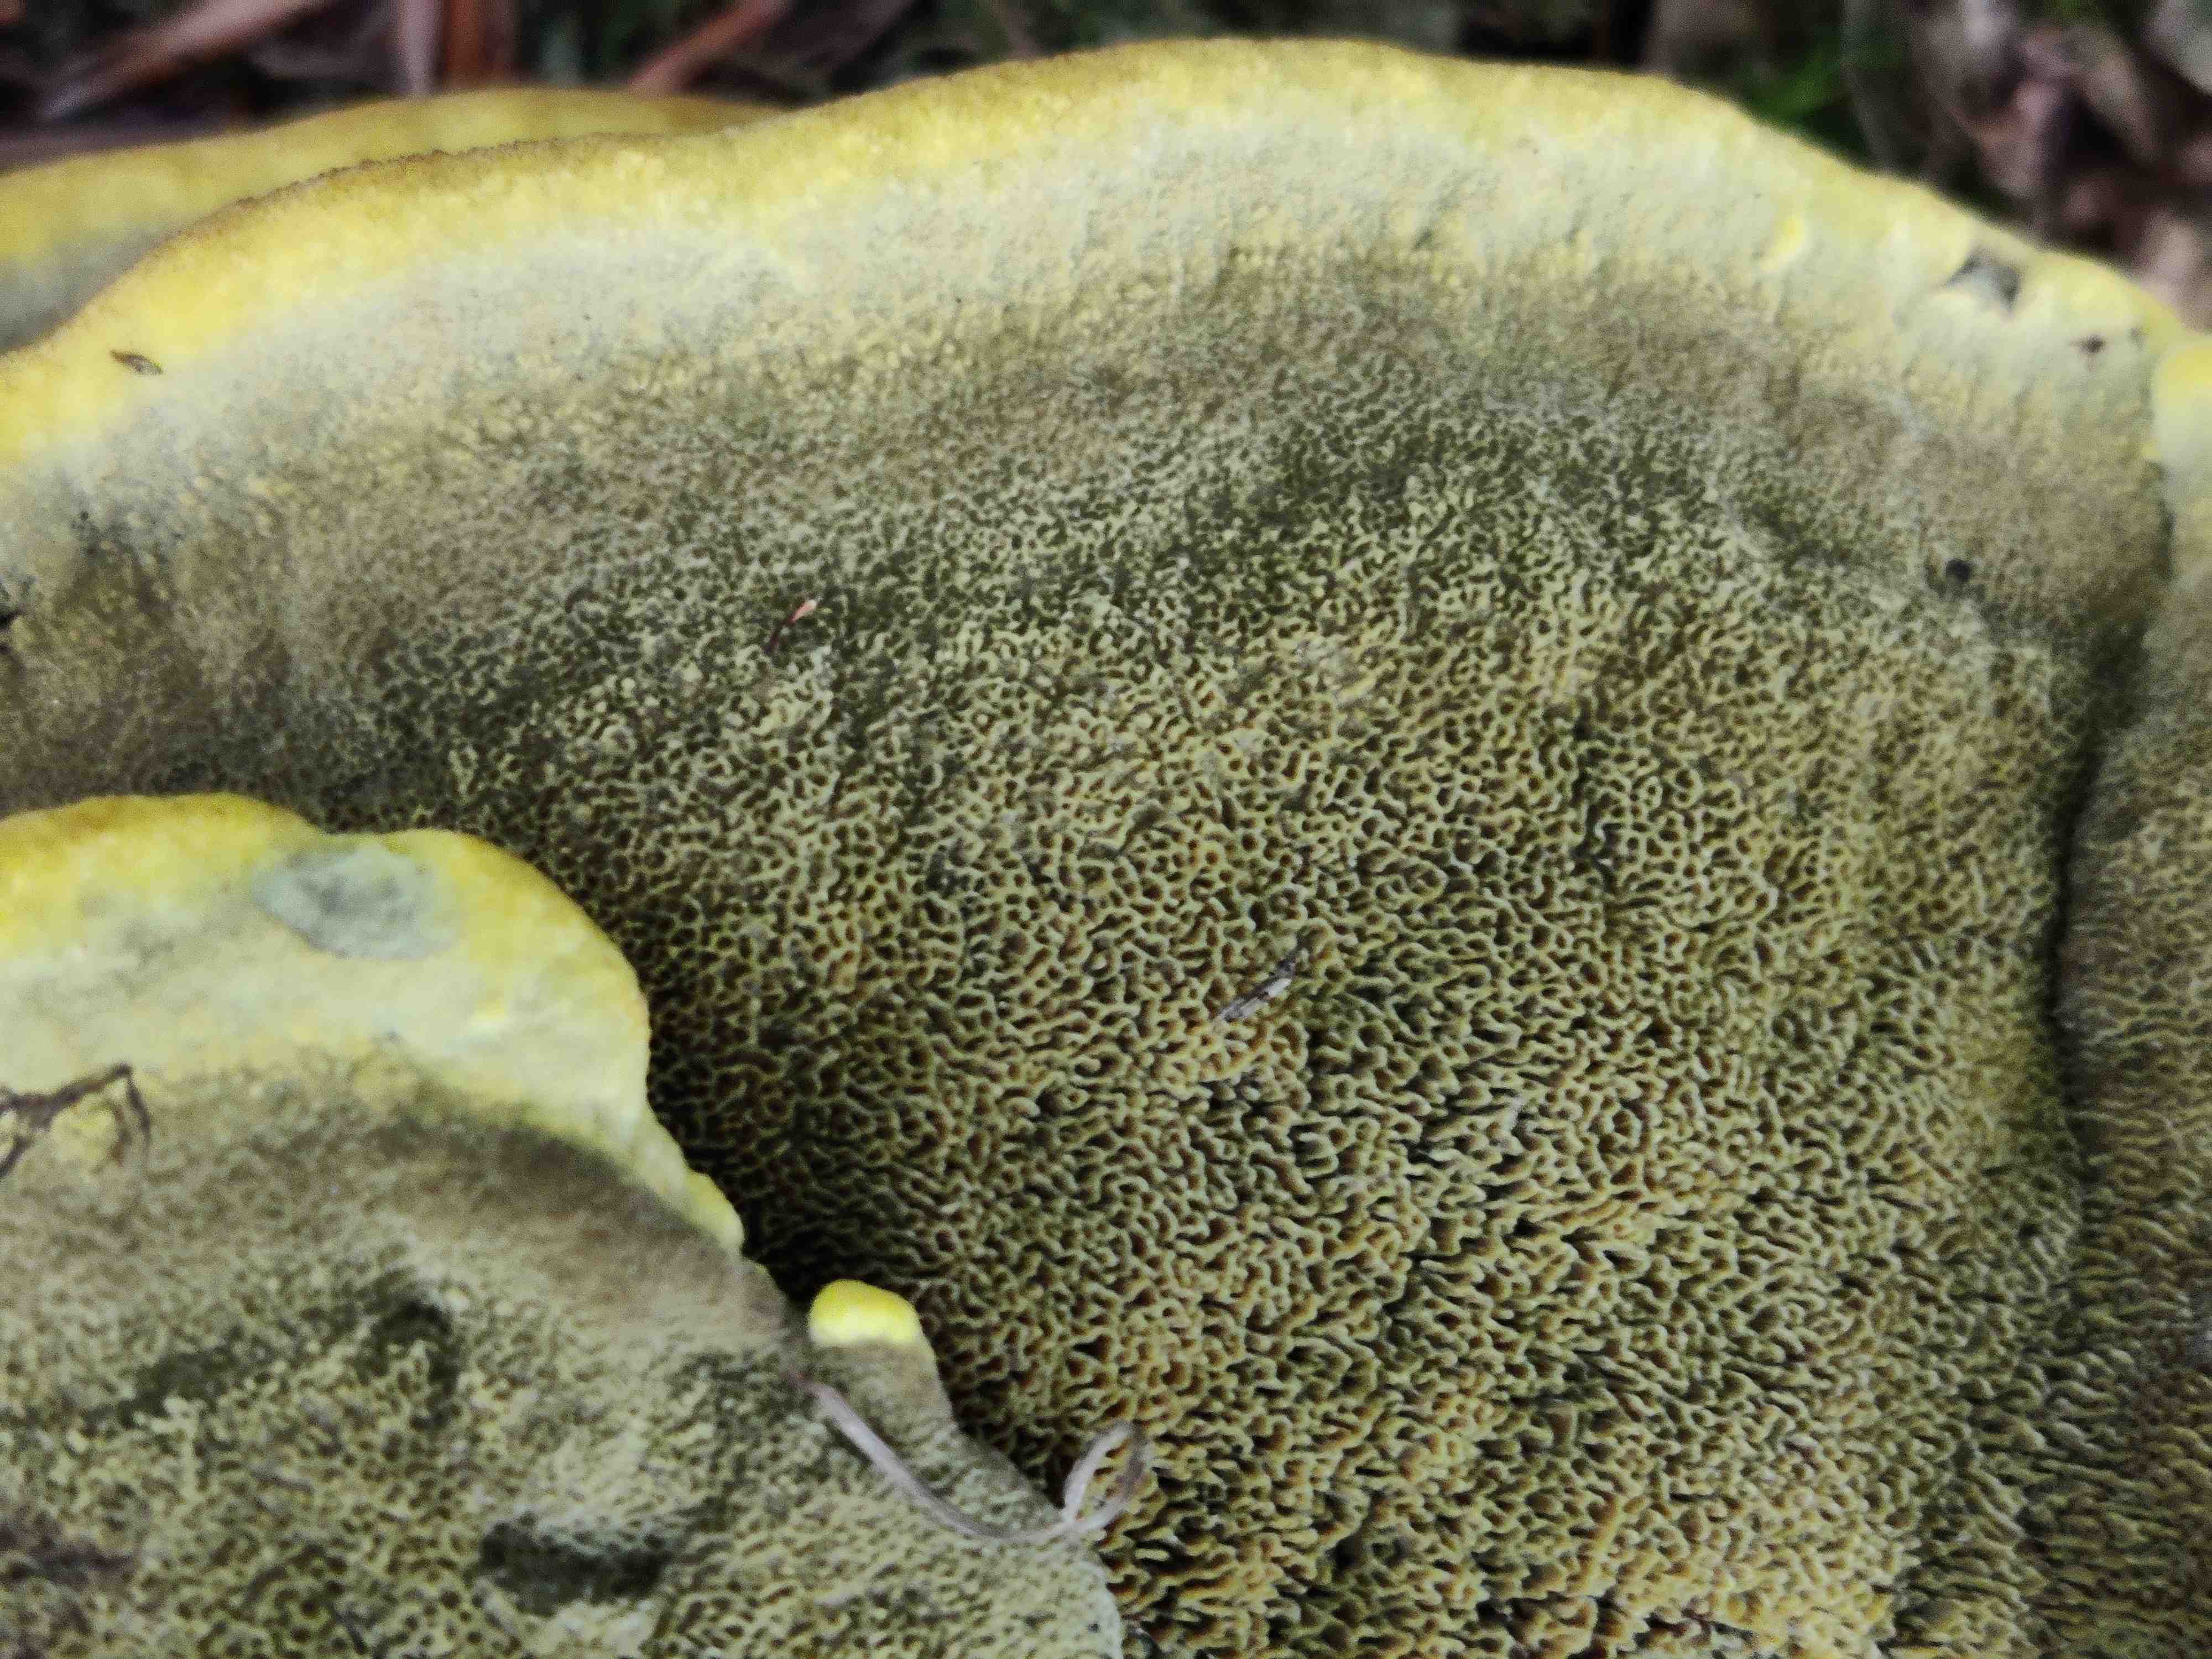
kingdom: Fungi
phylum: Basidiomycota
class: Agaricomycetes
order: Polyporales
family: Laetiporaceae
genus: Phaeolus
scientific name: Phaeolus schweinitzii
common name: brunporesvamp
